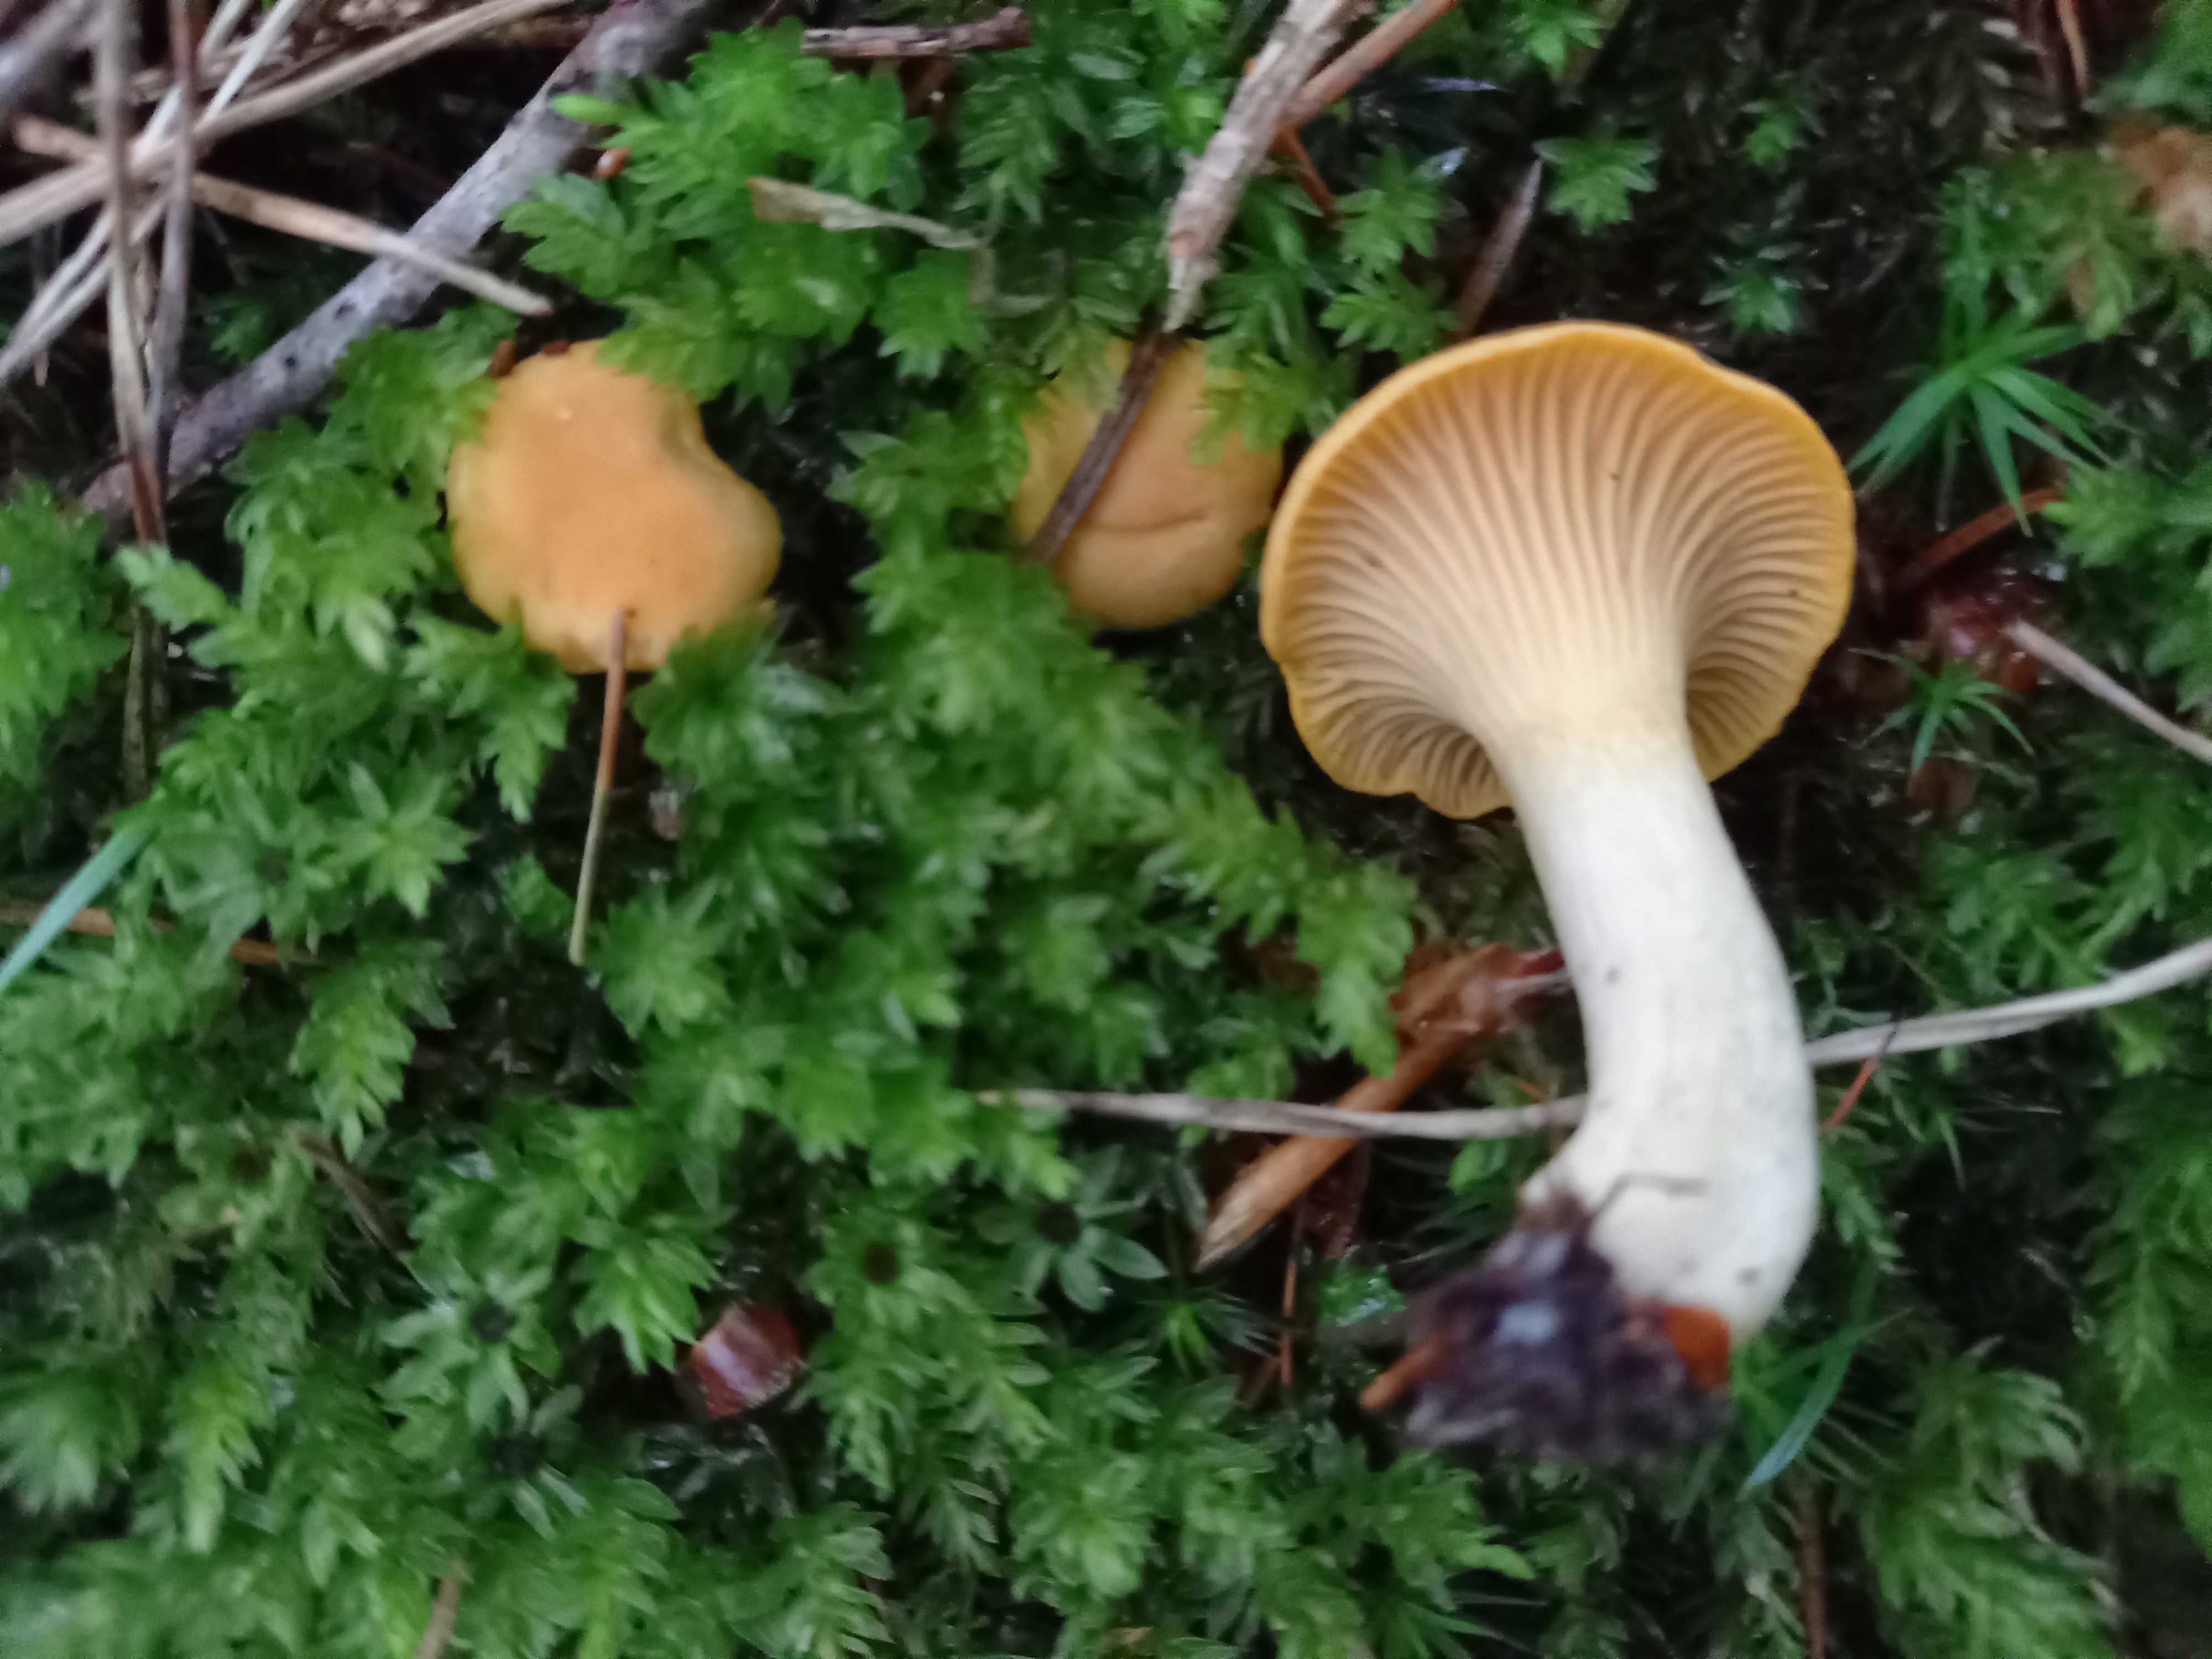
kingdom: Fungi
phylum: Basidiomycota
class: Agaricomycetes
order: Cantharellales
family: Hydnaceae
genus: Cantharellus
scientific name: Cantharellus cibarius
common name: almindelig kantarel
